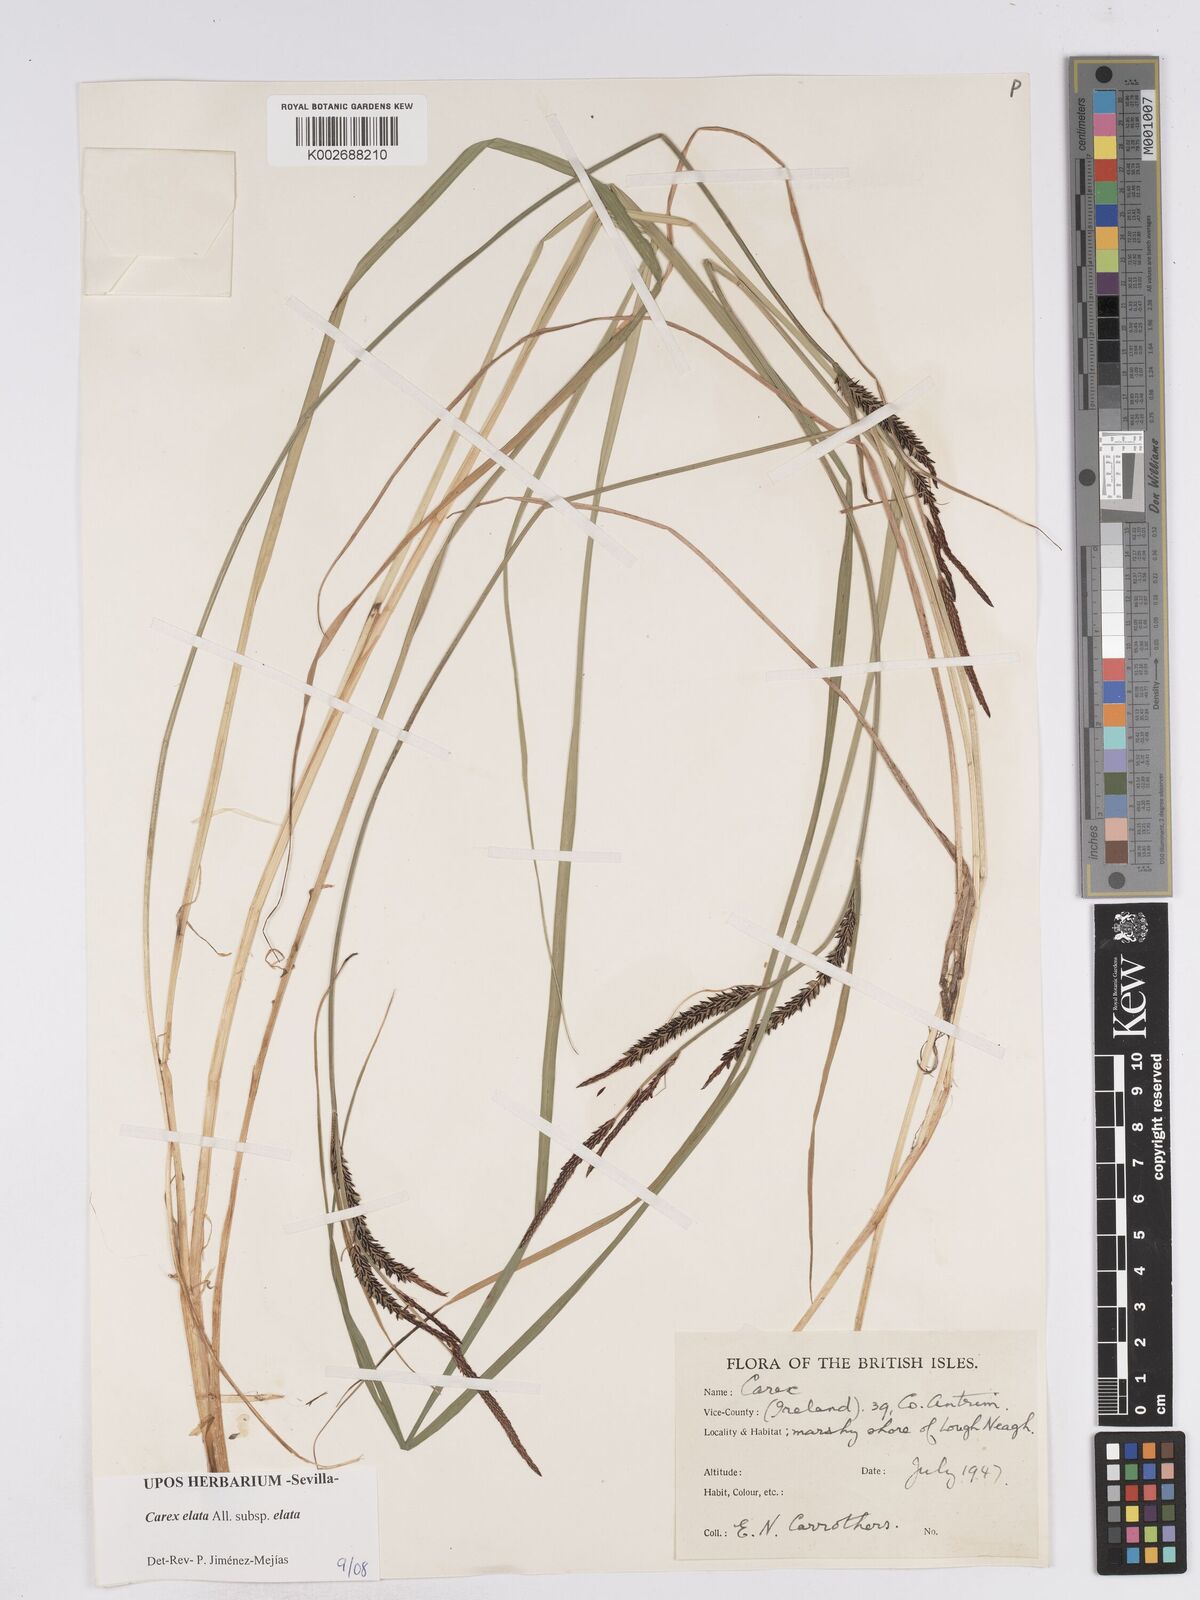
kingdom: Plantae
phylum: Tracheophyta
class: Liliopsida
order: Poales
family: Cyperaceae
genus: Carex
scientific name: Carex elata
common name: Tufted sedge
